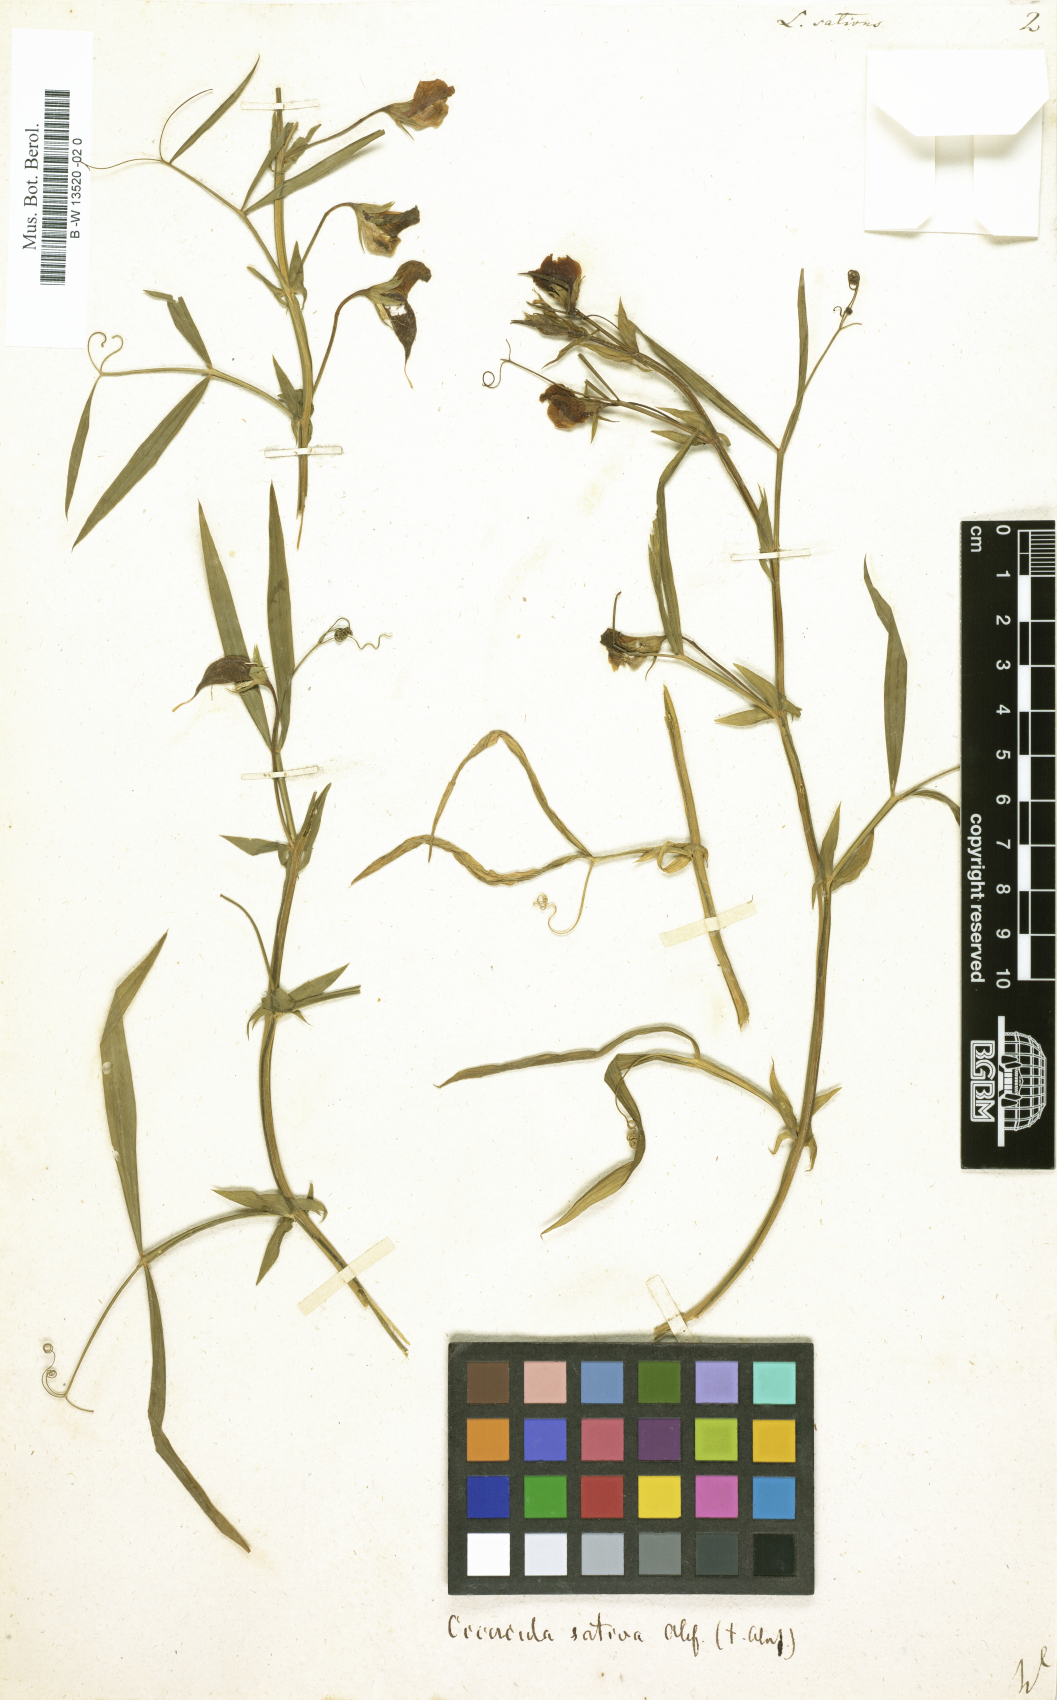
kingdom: Plantae
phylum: Tracheophyta
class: Magnoliopsida
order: Fabales
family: Fabaceae
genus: Lathyrus
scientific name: Lathyrus sativus
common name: Indian pea
